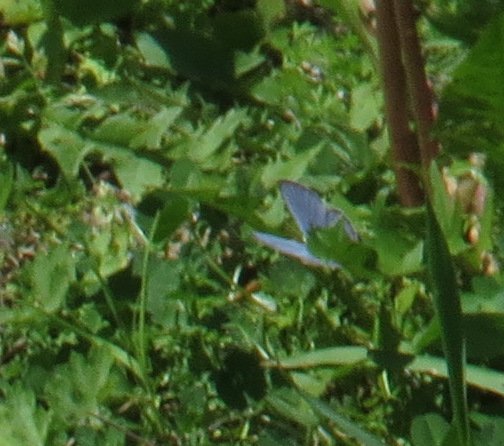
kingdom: Animalia
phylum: Arthropoda
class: Insecta
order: Lepidoptera
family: Lycaenidae
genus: Glaucopsyche
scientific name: Glaucopsyche lygdamus
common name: Silvery Blue
